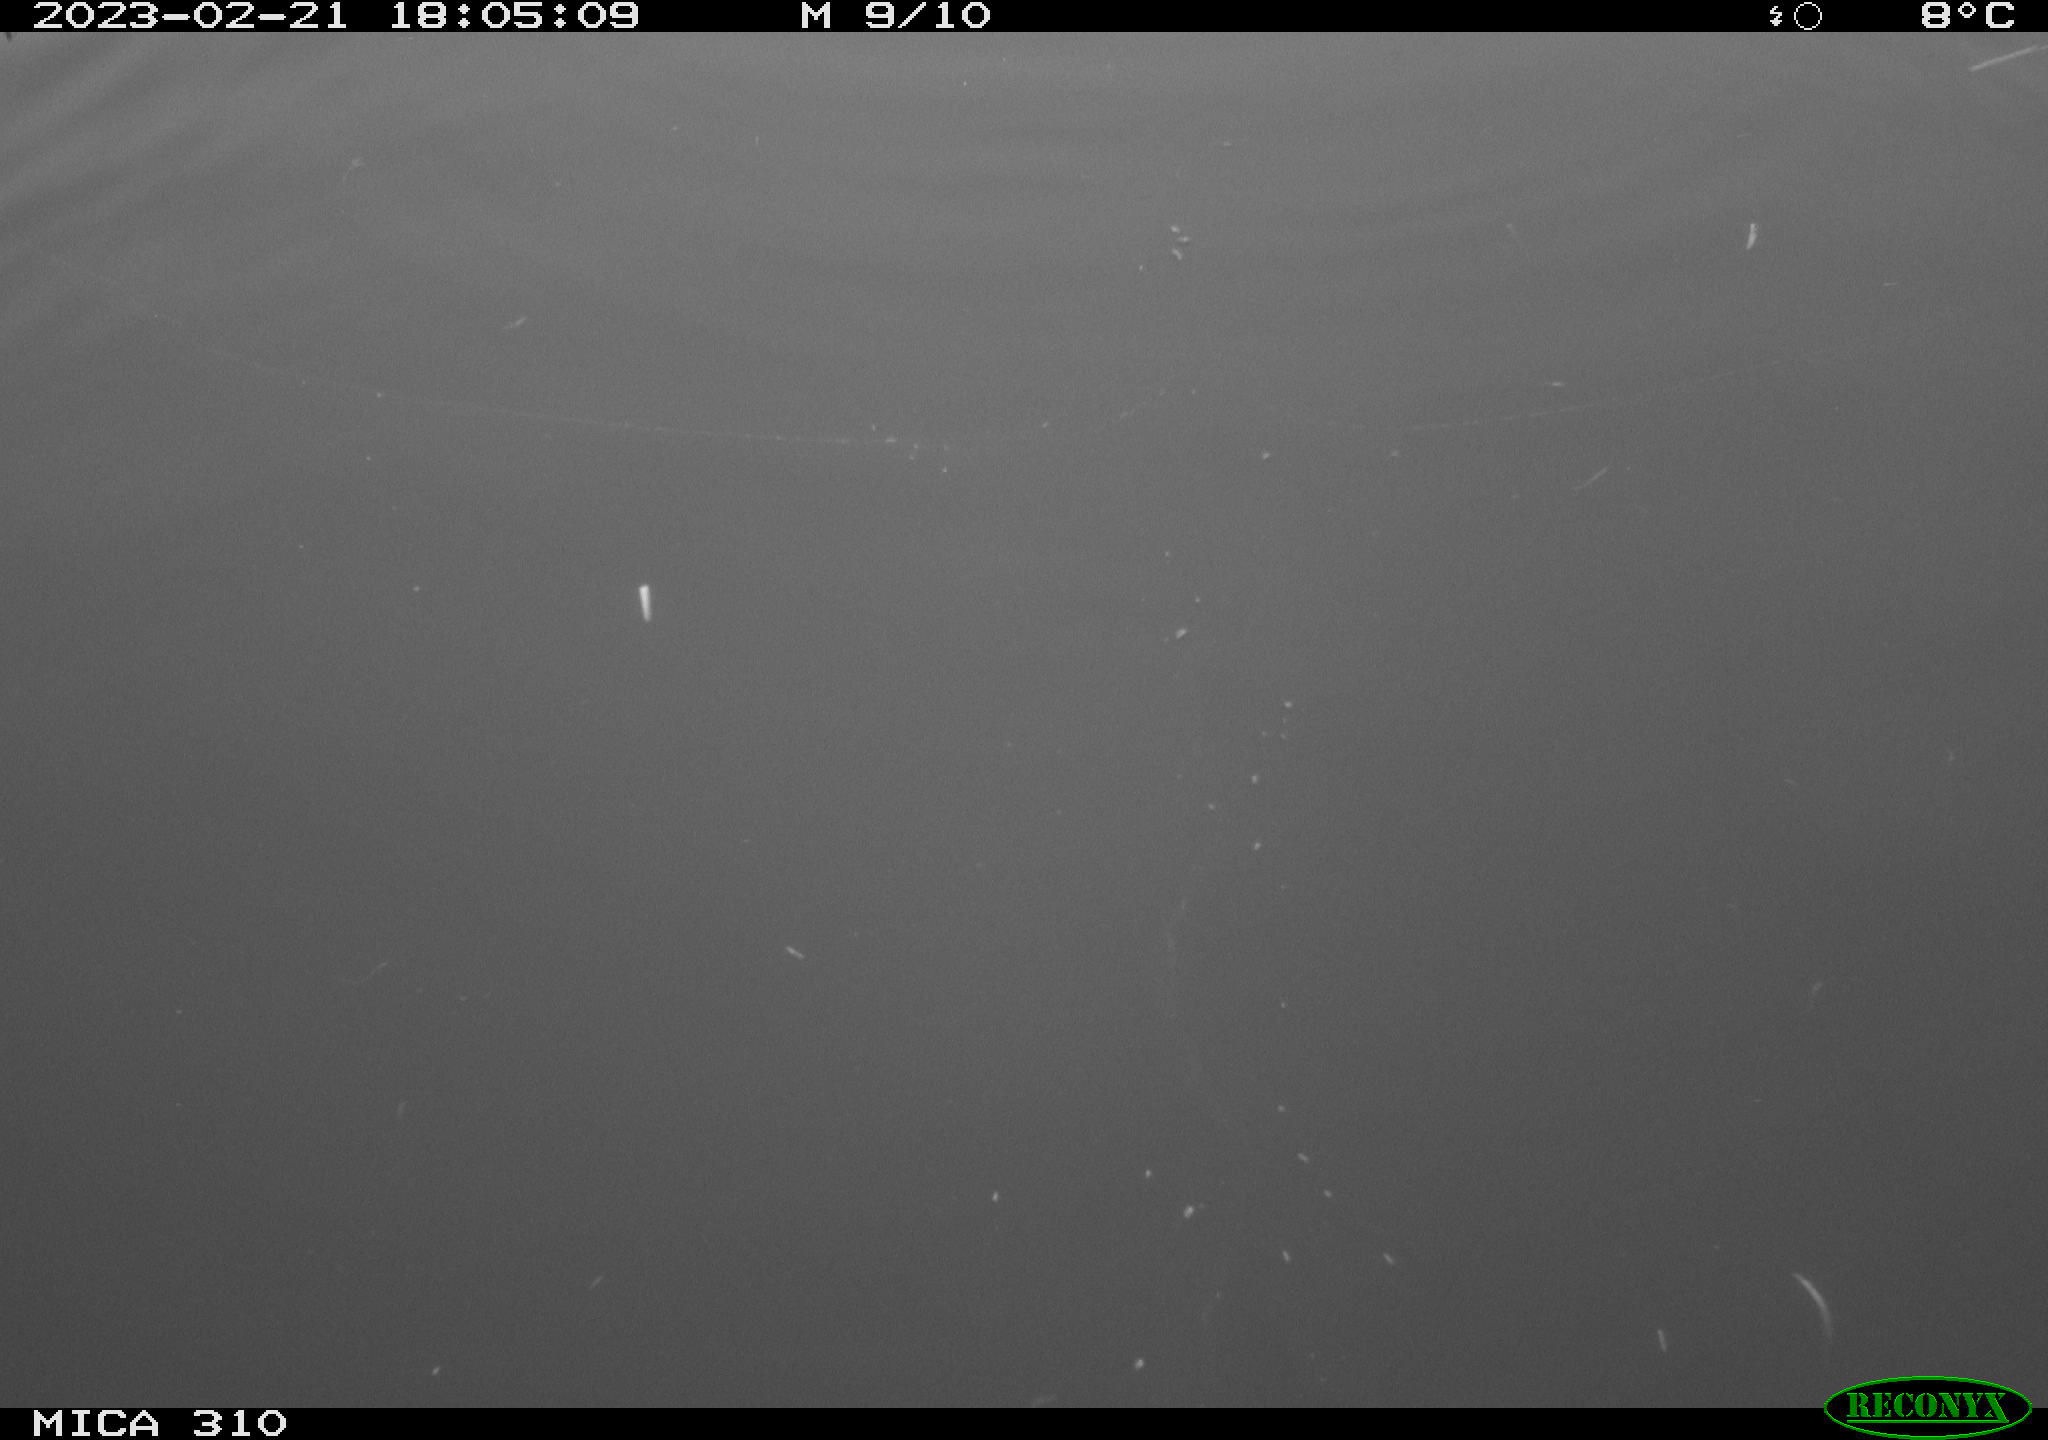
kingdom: Animalia
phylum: Chordata
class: Mammalia
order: Rodentia
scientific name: Rodentia
